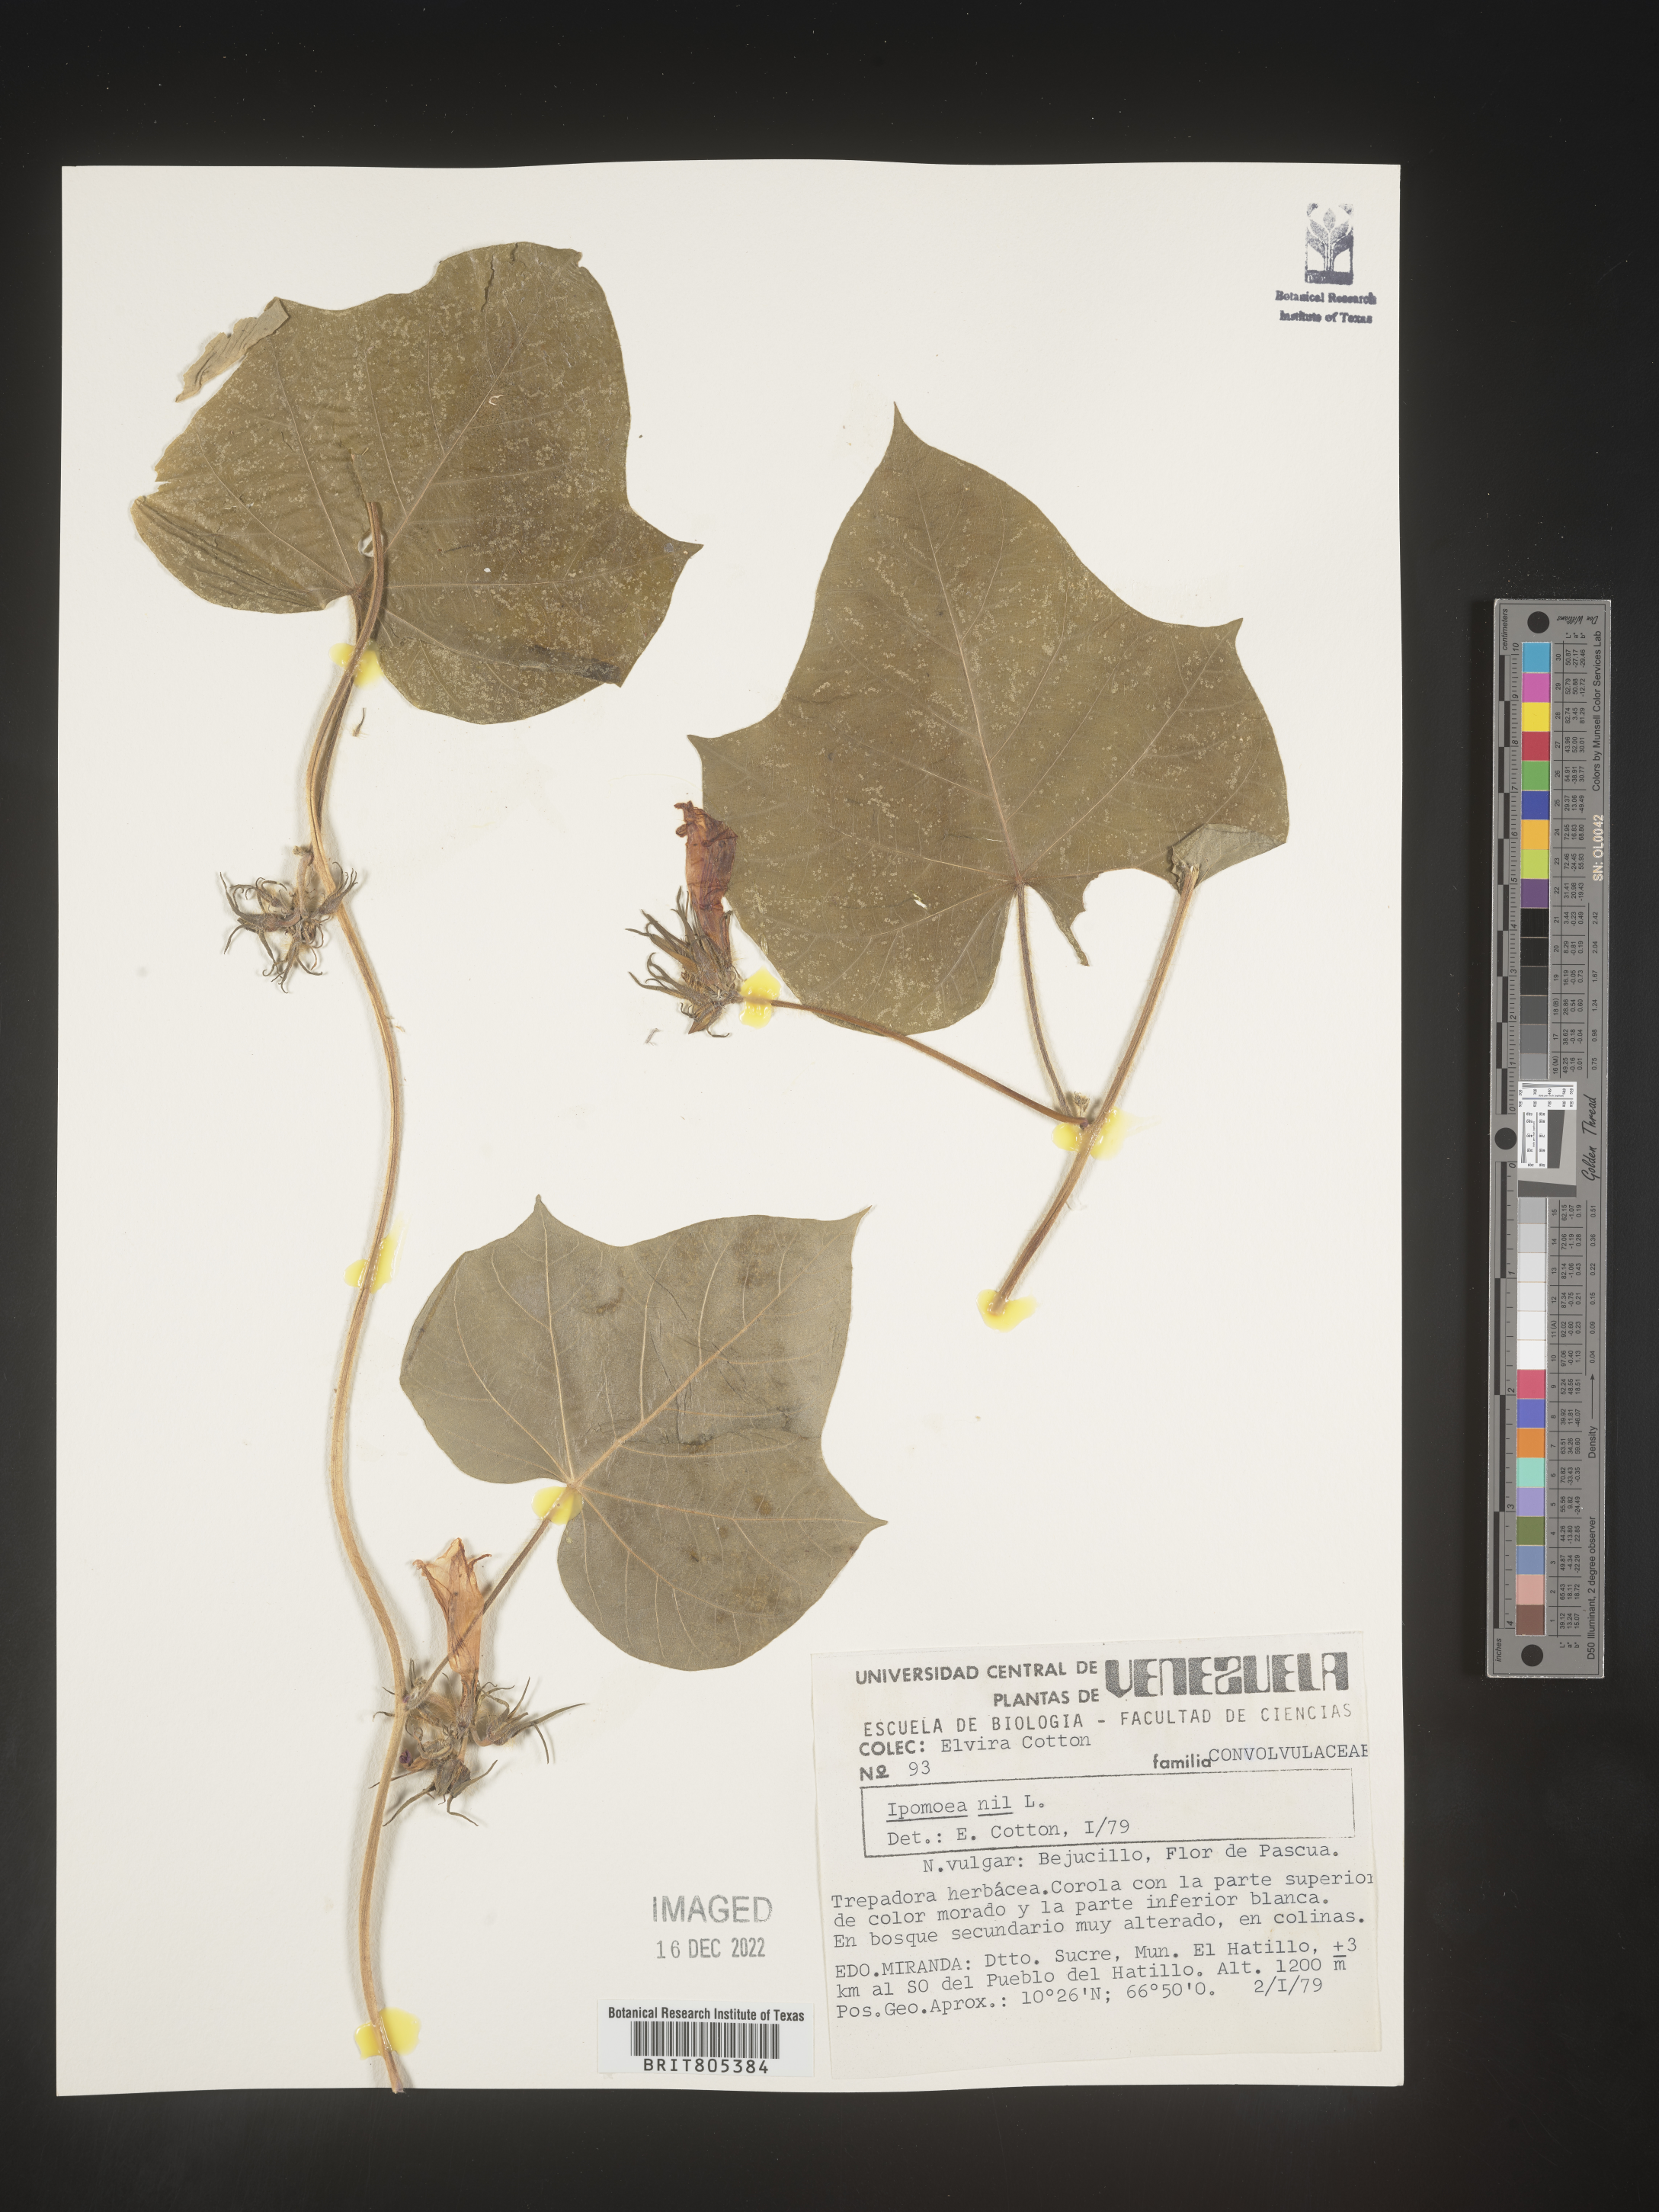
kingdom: Plantae
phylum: Tracheophyta
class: Magnoliopsida
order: Solanales
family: Convolvulaceae
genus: Ipomoea
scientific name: Ipomoea
